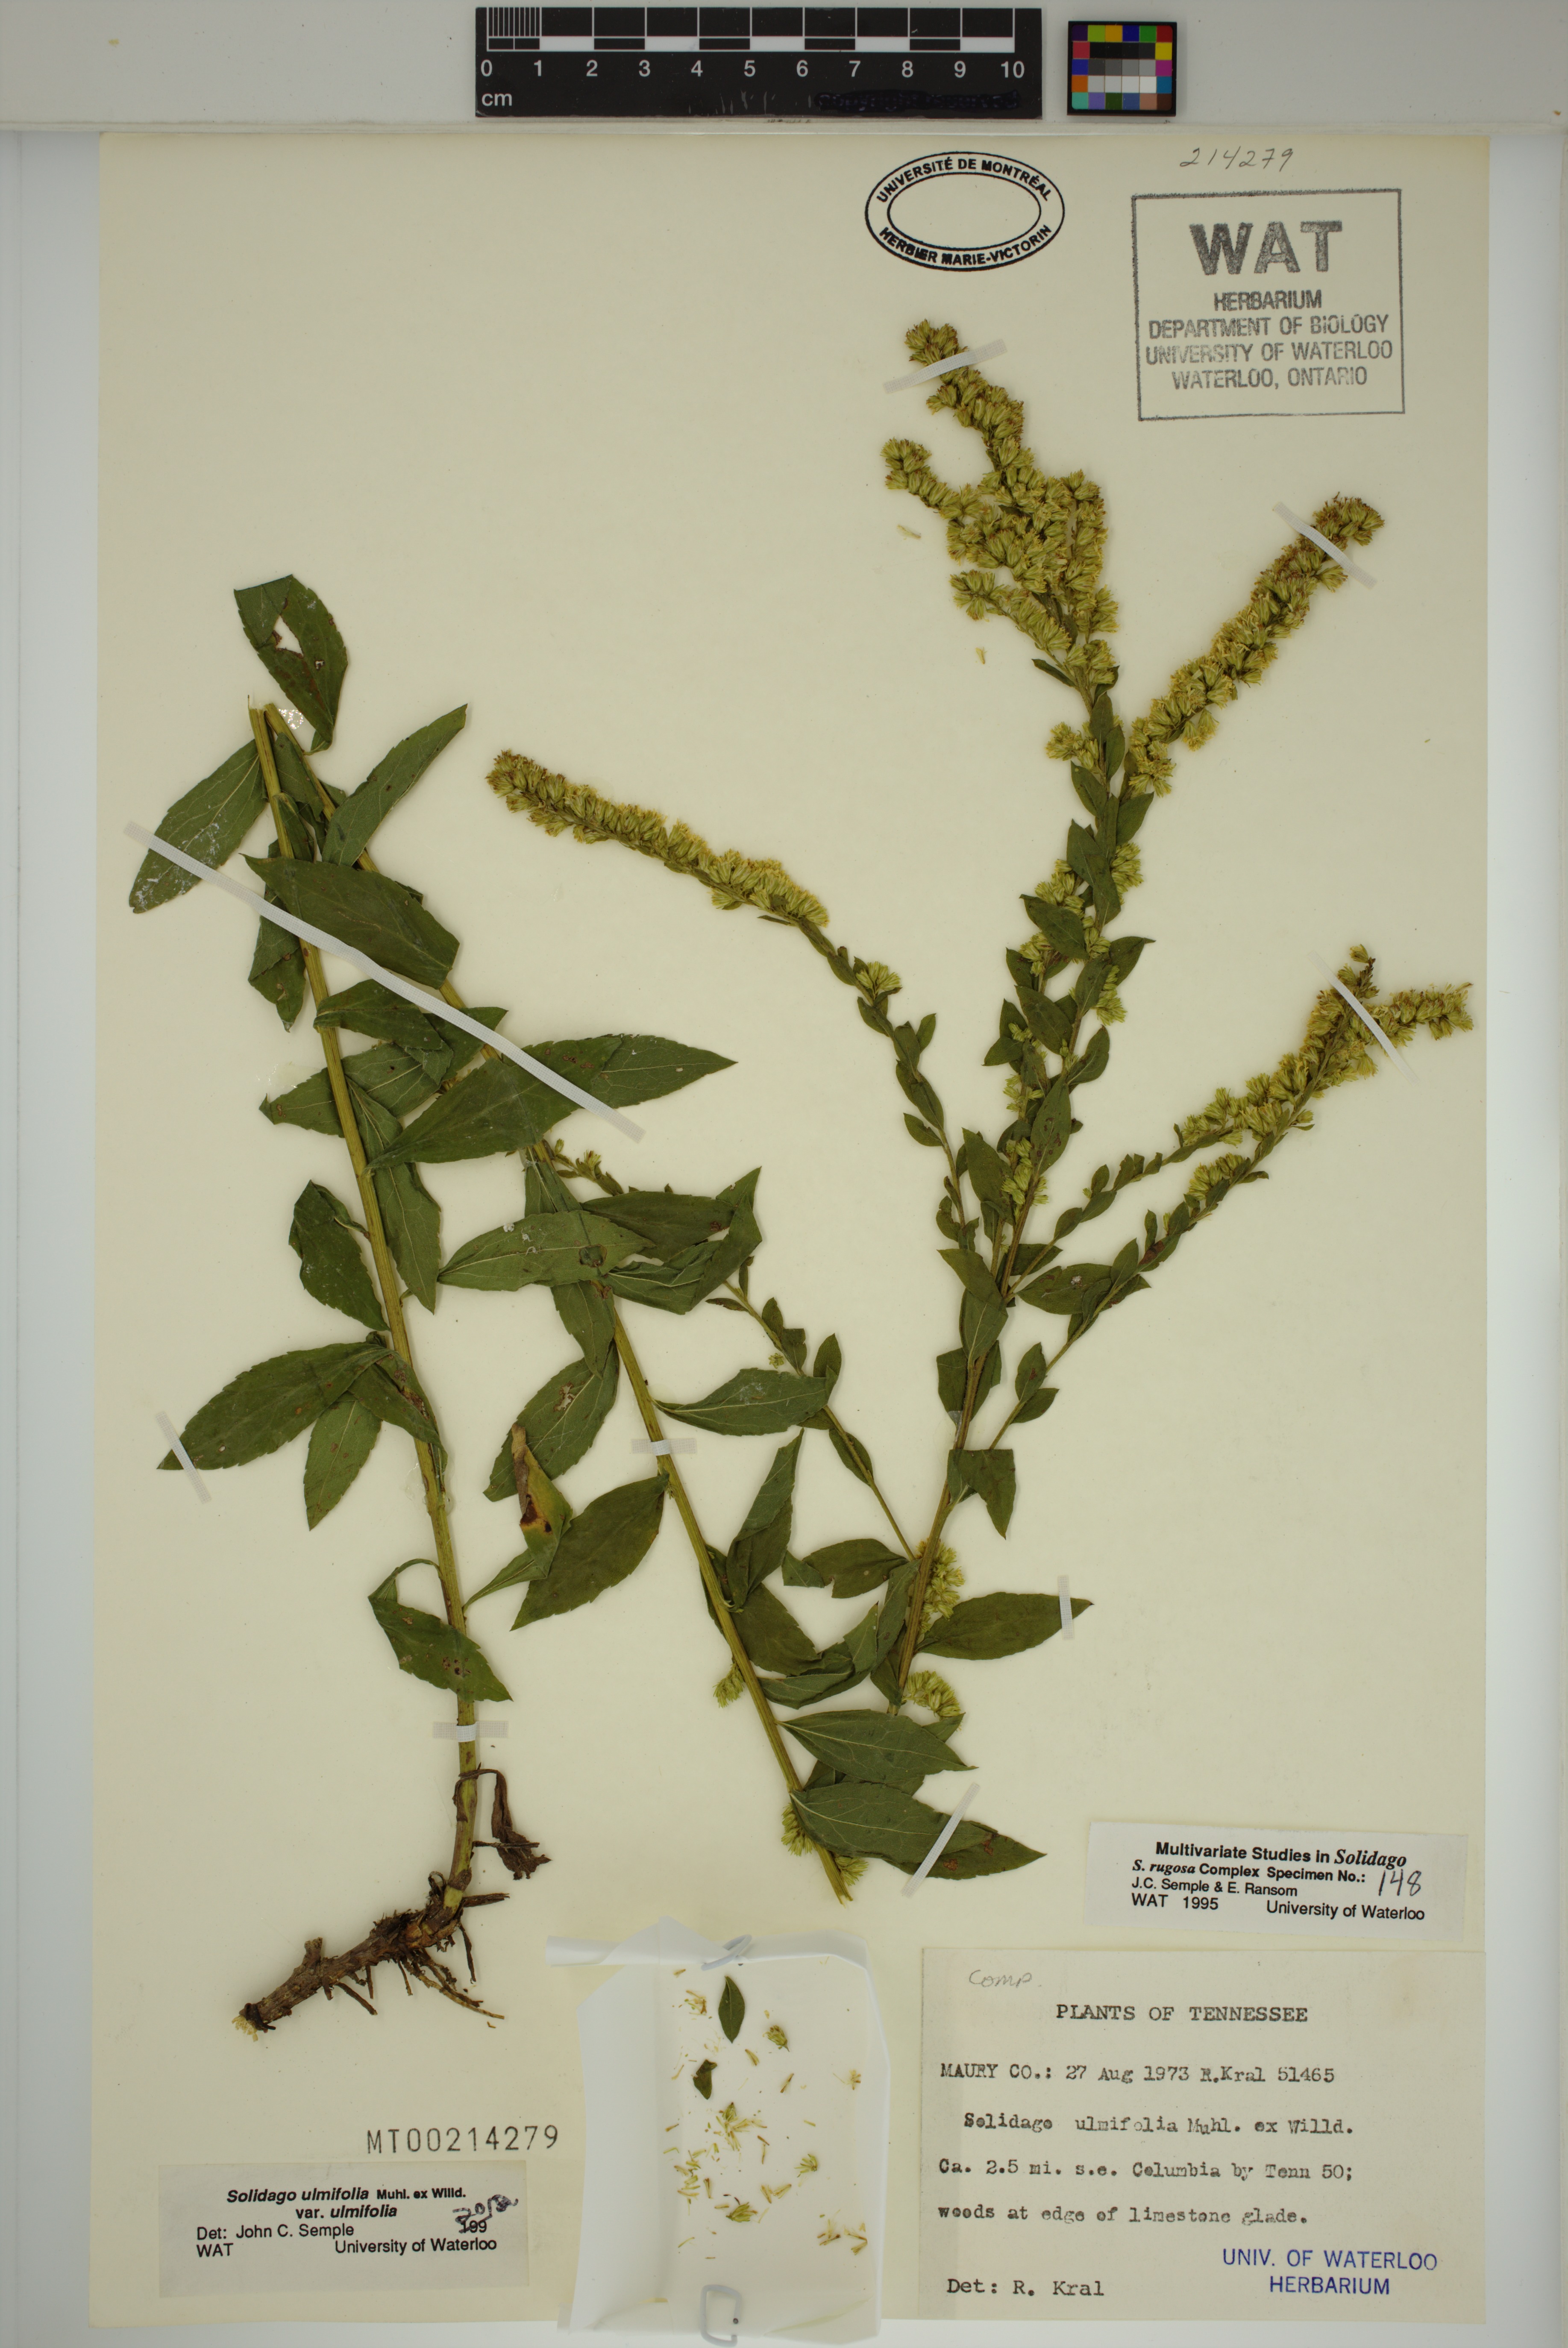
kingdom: Plantae
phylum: Tracheophyta
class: Magnoliopsida
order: Asterales
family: Asteraceae
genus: Solidago
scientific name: Solidago ulmifolia
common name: Elm-leaf goldenrod
